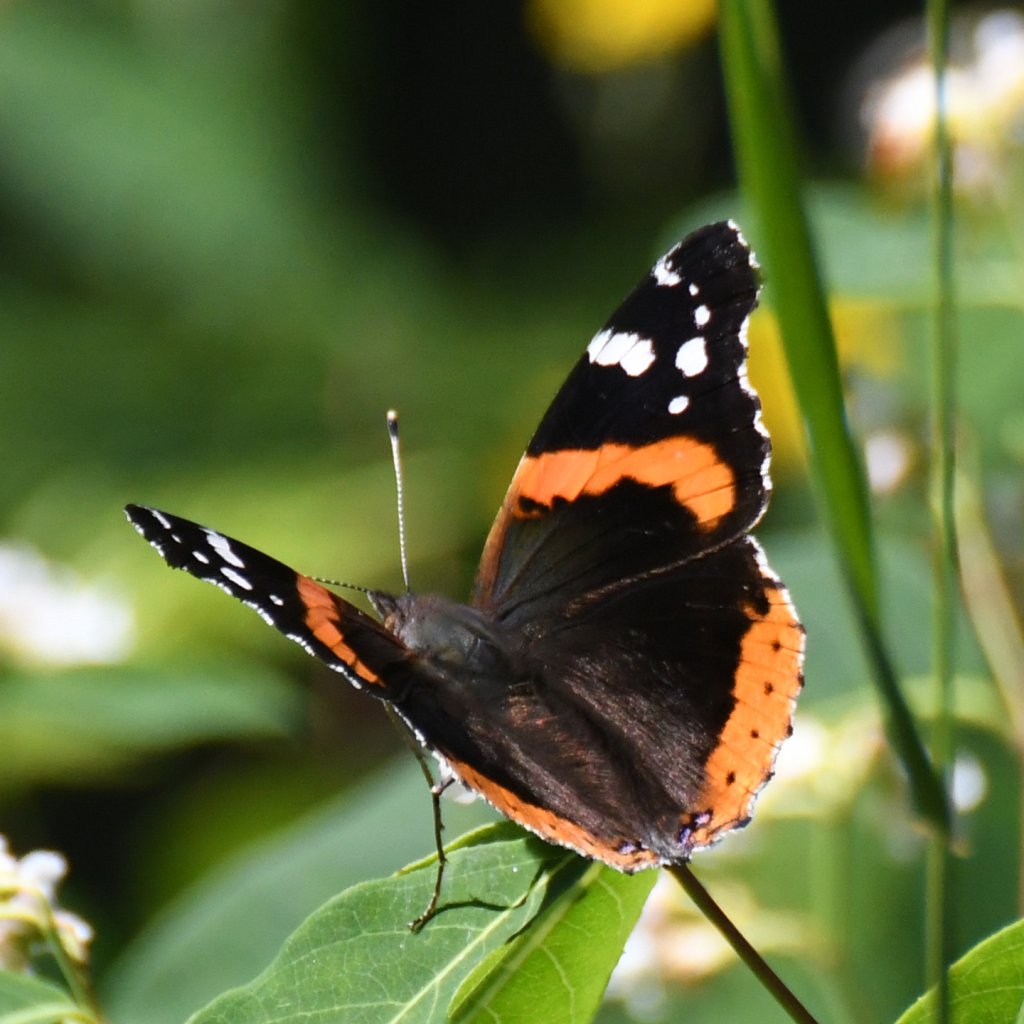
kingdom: Animalia
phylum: Arthropoda
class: Insecta
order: Lepidoptera
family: Nymphalidae
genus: Vanessa
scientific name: Vanessa atalanta
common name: Red Admiral
